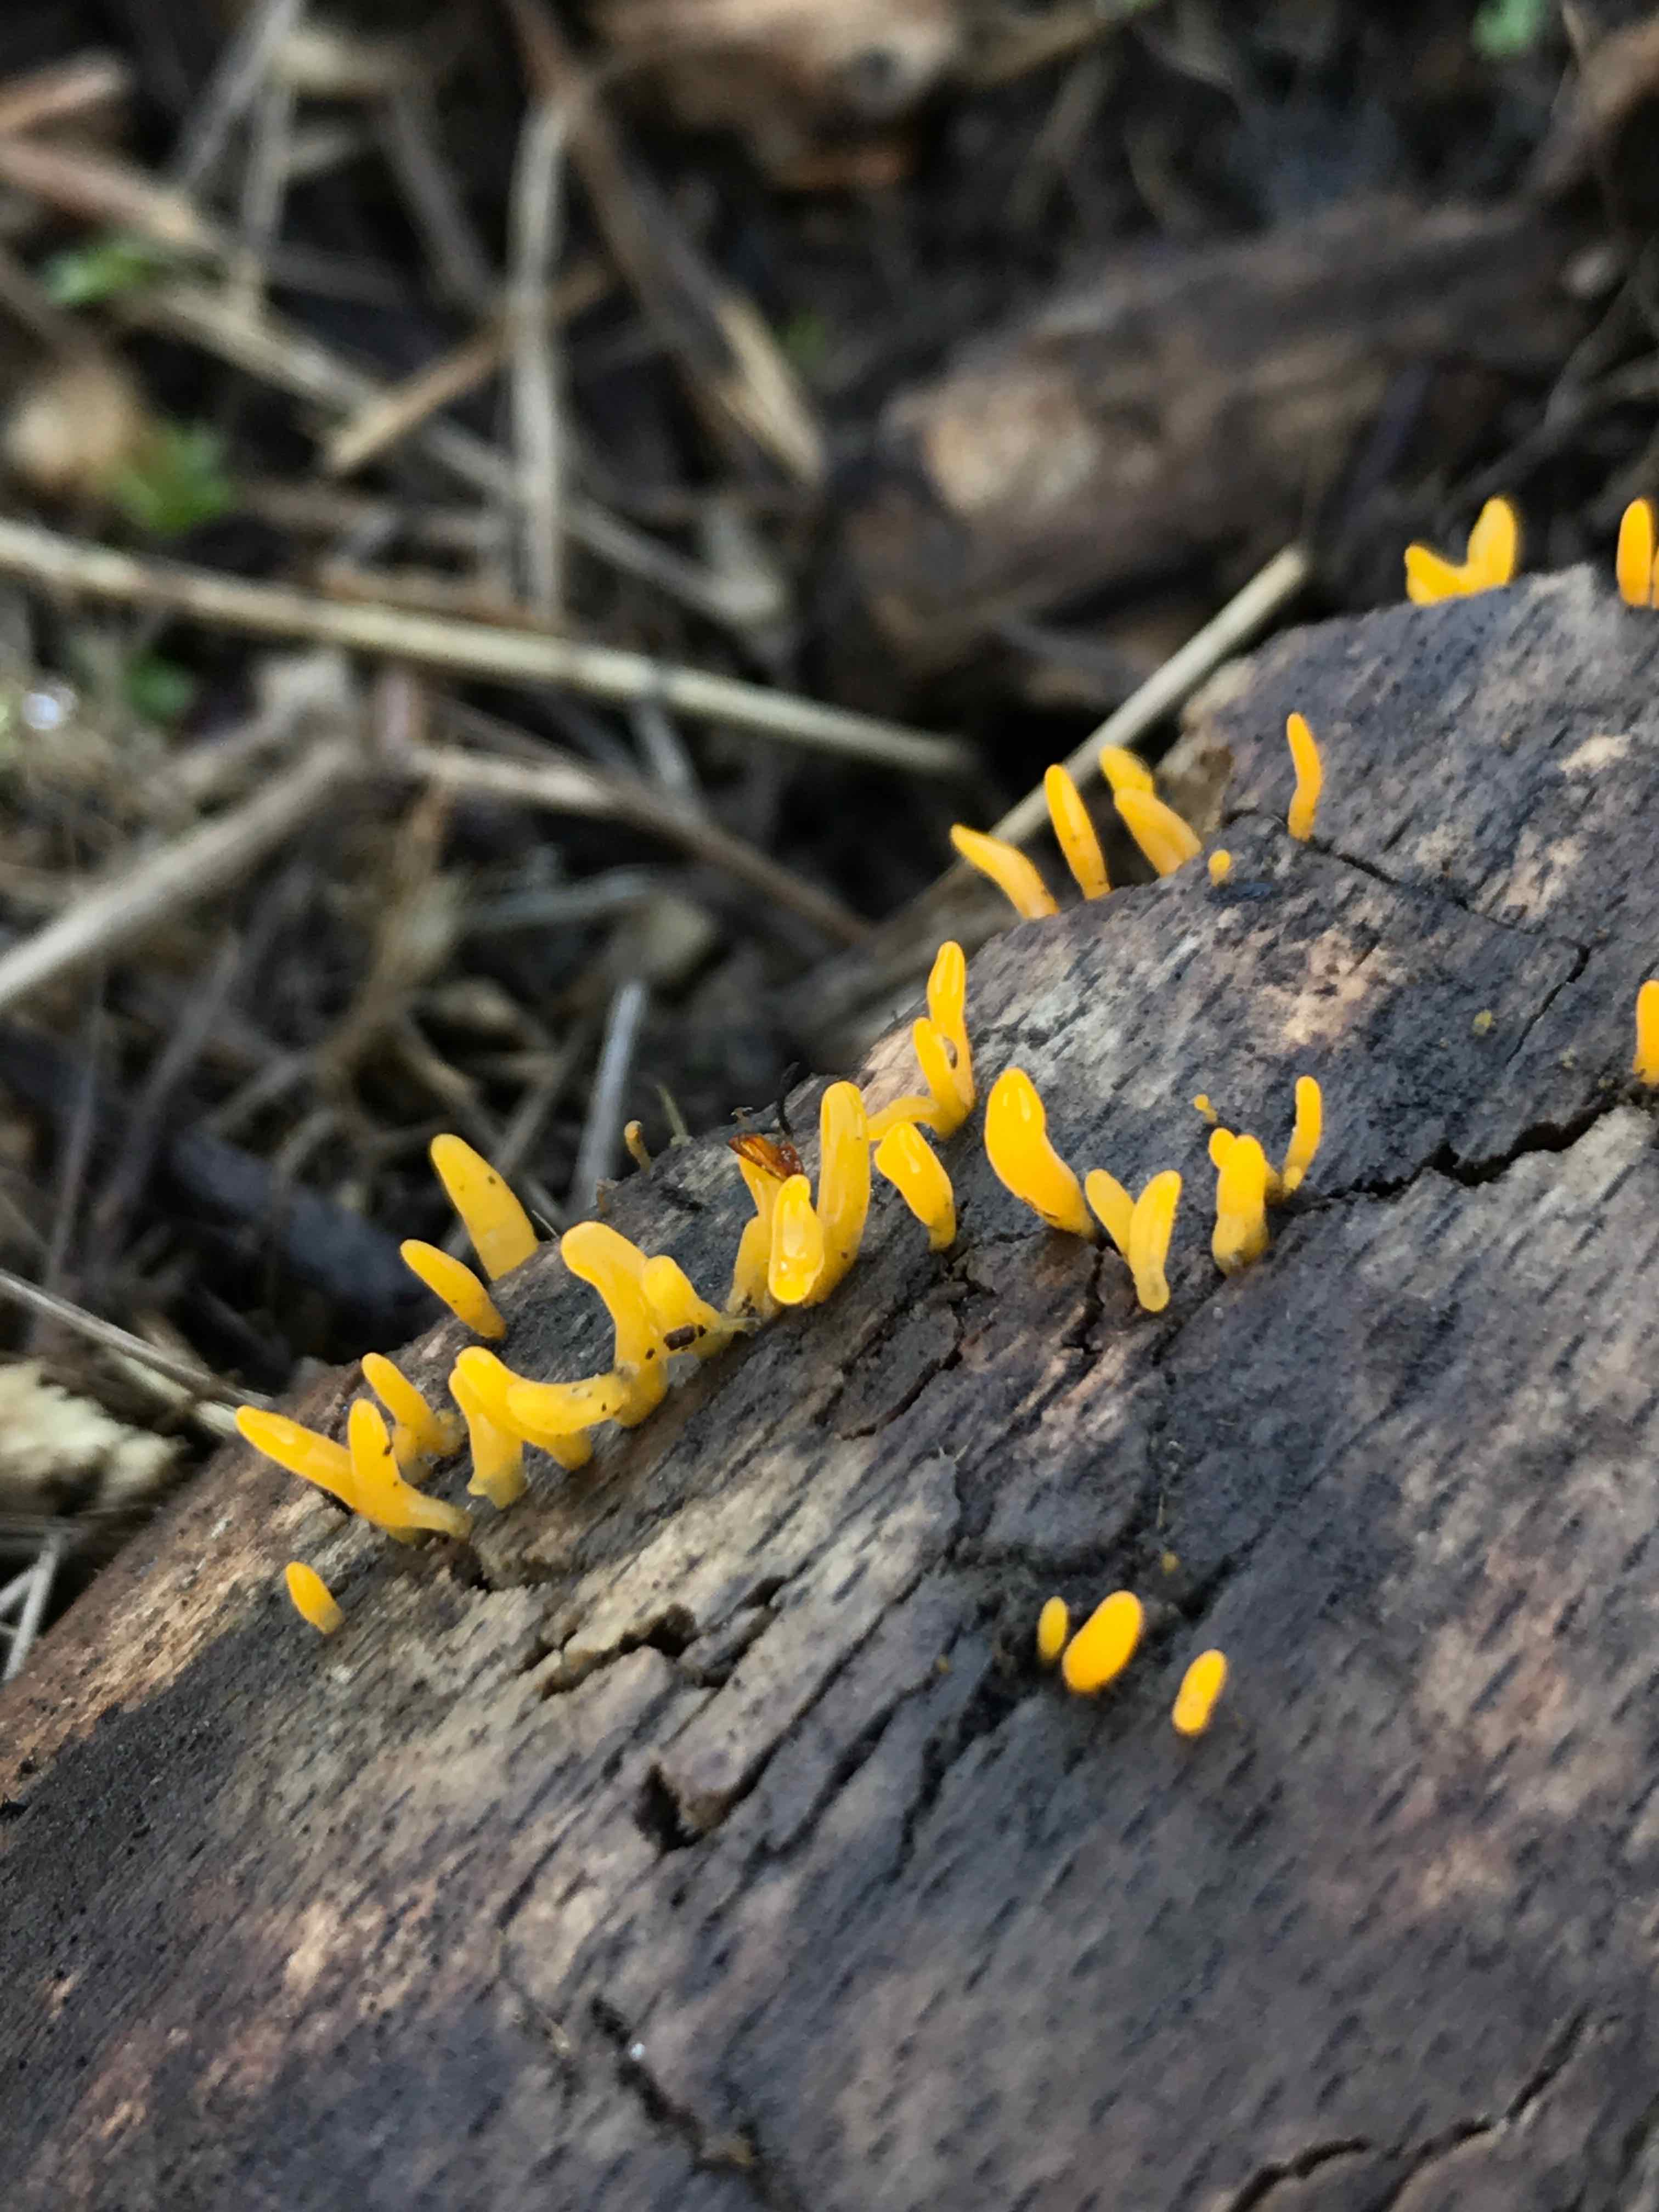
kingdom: Fungi
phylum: Basidiomycota
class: Dacrymycetes
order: Dacrymycetales
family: Dacrymycetaceae
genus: Calocera
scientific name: Calocera cornea
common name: liden guldgaffel
